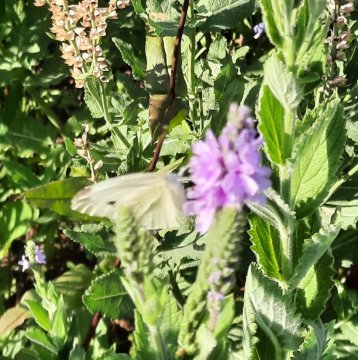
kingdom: Animalia
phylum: Arthropoda
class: Insecta
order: Lepidoptera
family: Pieridae
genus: Pieris
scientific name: Pieris rapae
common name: Cabbage White
